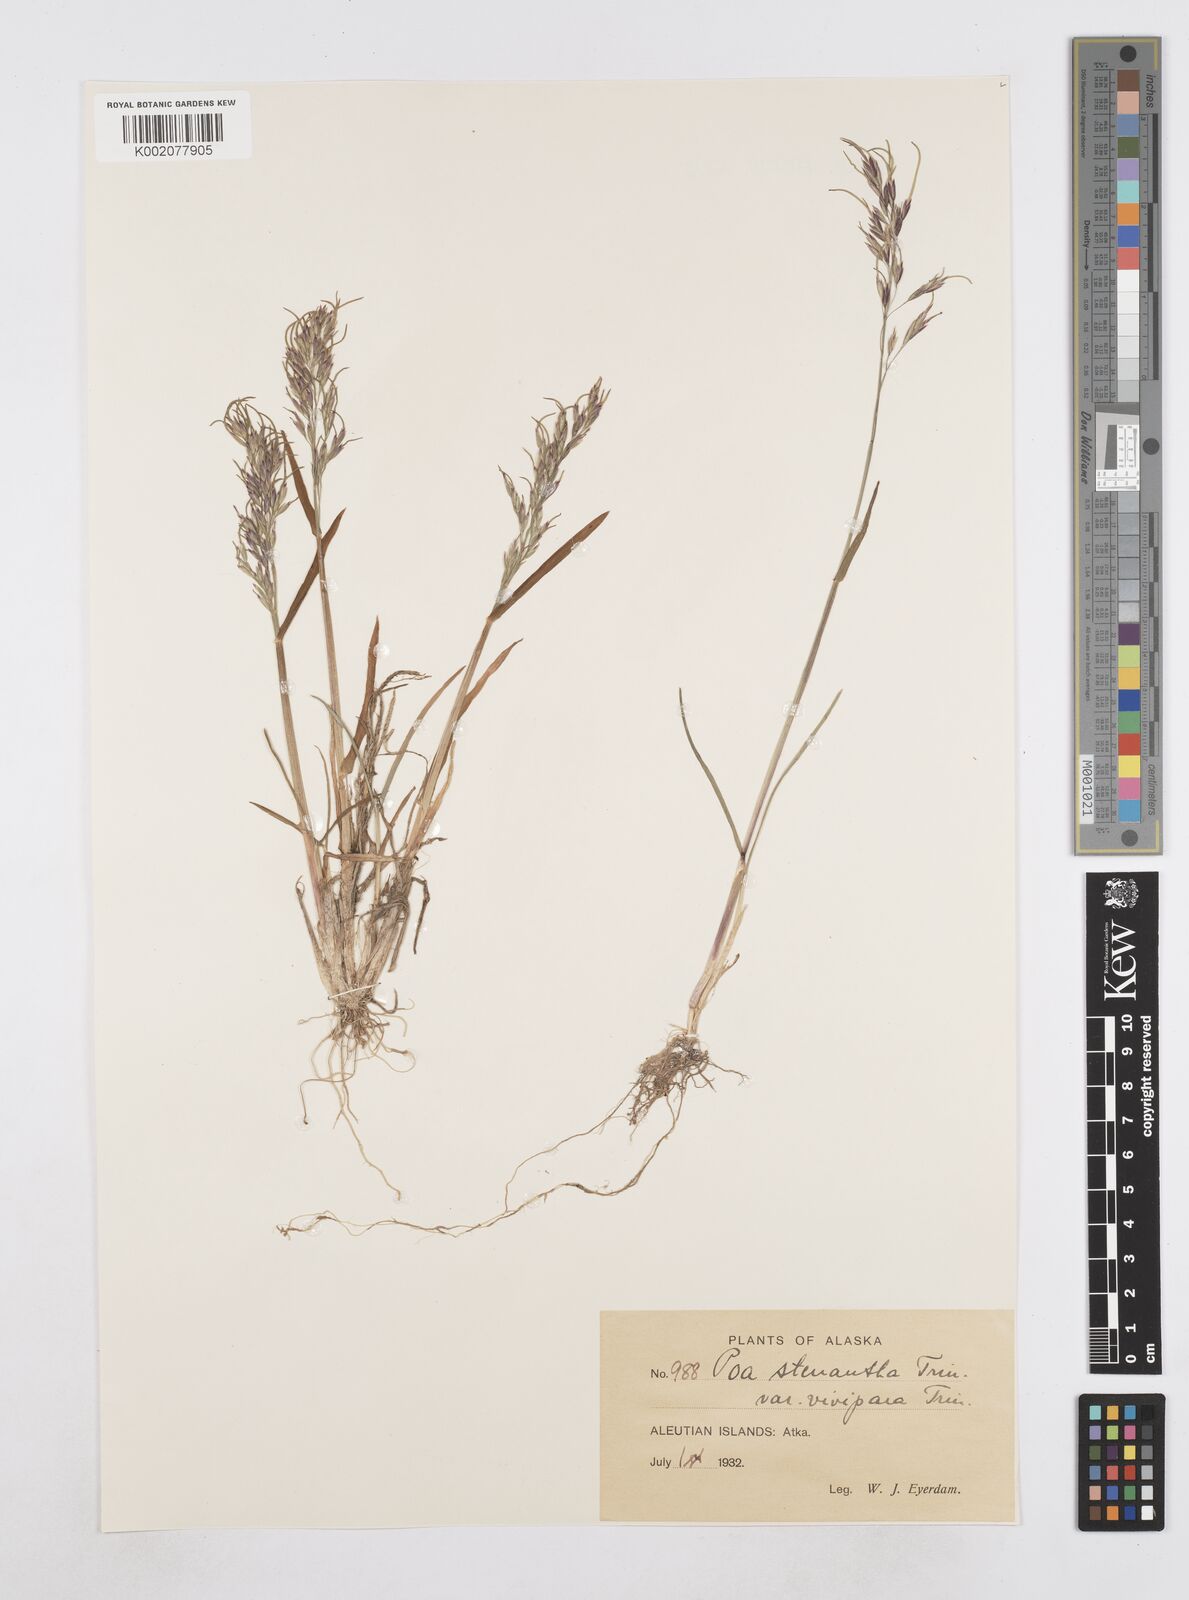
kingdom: Plantae
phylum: Tracheophyta
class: Liliopsida
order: Poales
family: Poaceae
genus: Poa
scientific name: Poa stenantha
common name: Narrow-flowered bluegrass
